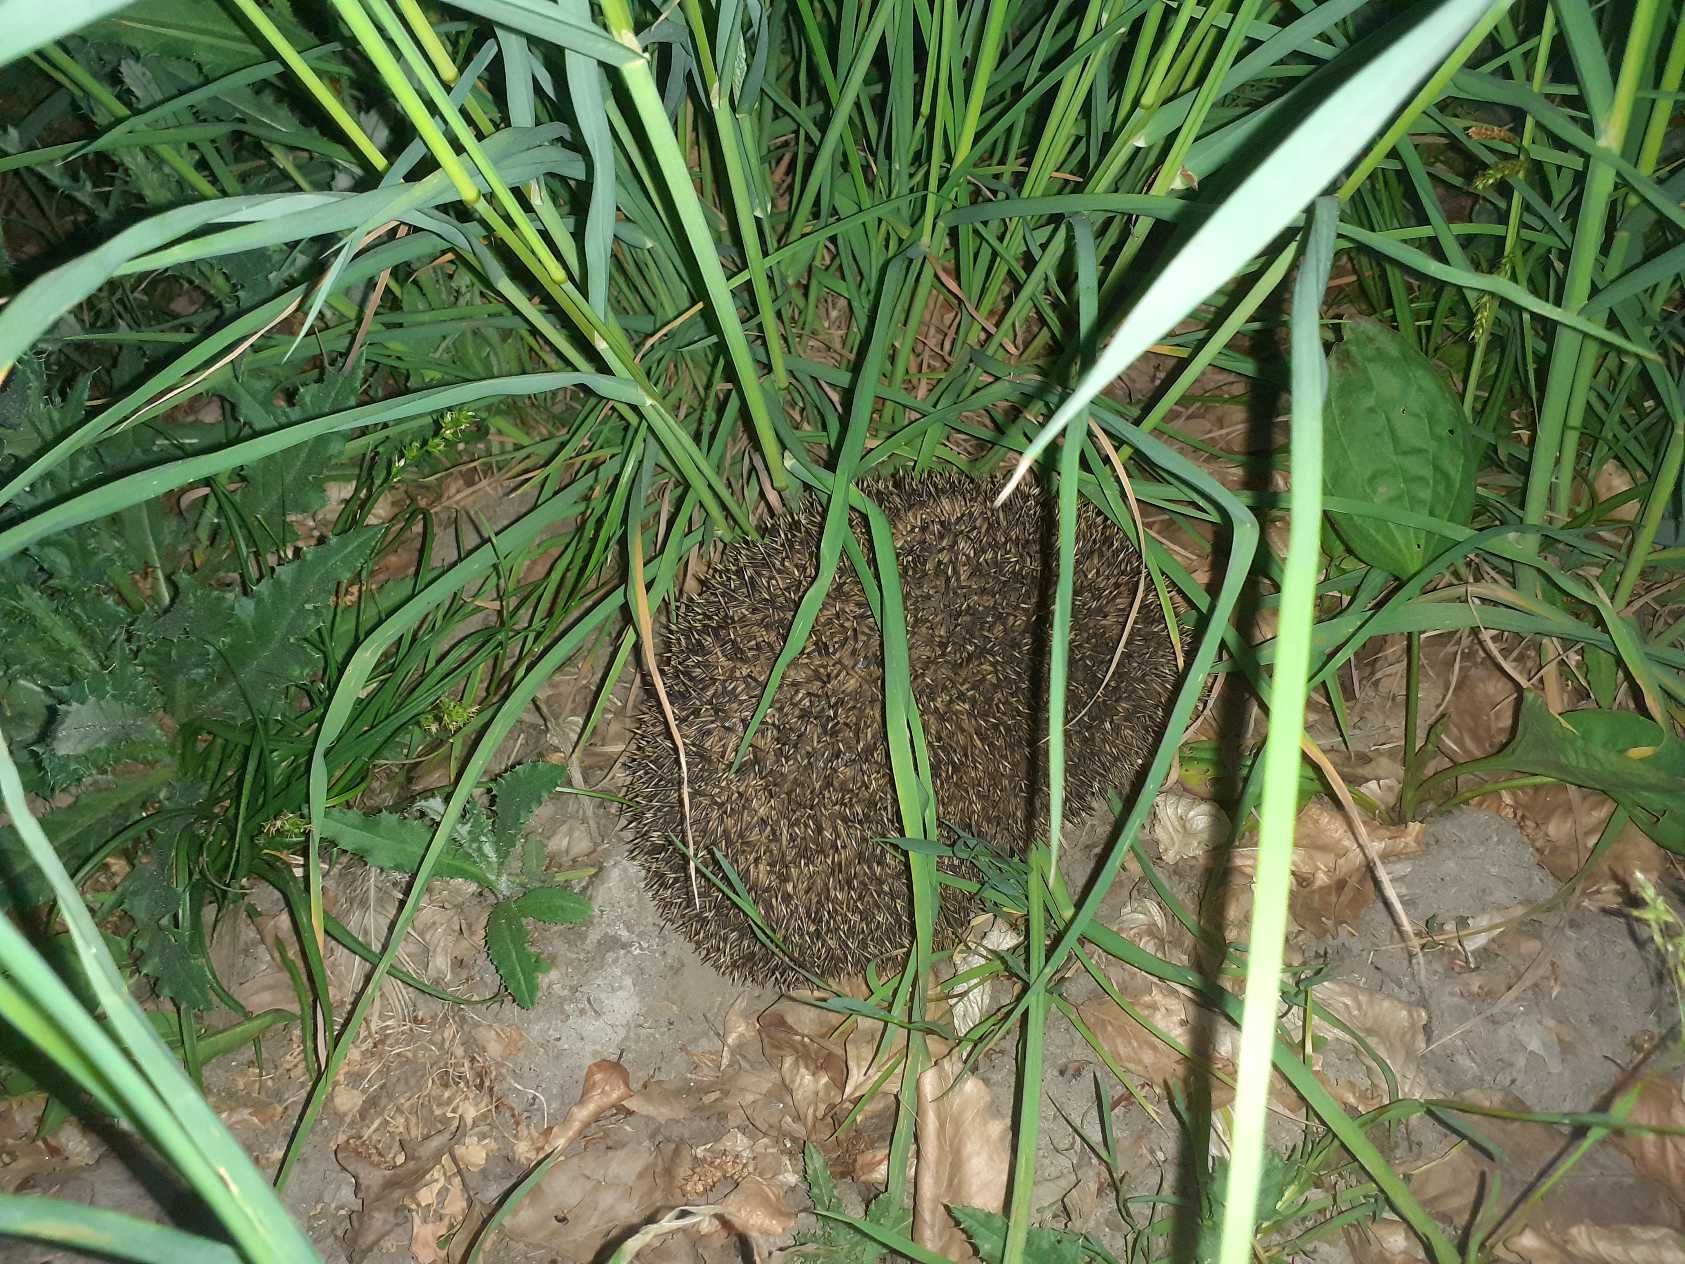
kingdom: Animalia
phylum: Chordata
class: Mammalia
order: Erinaceomorpha
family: Erinaceidae
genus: Erinaceus
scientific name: Erinaceus europaeus
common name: Pindsvin
